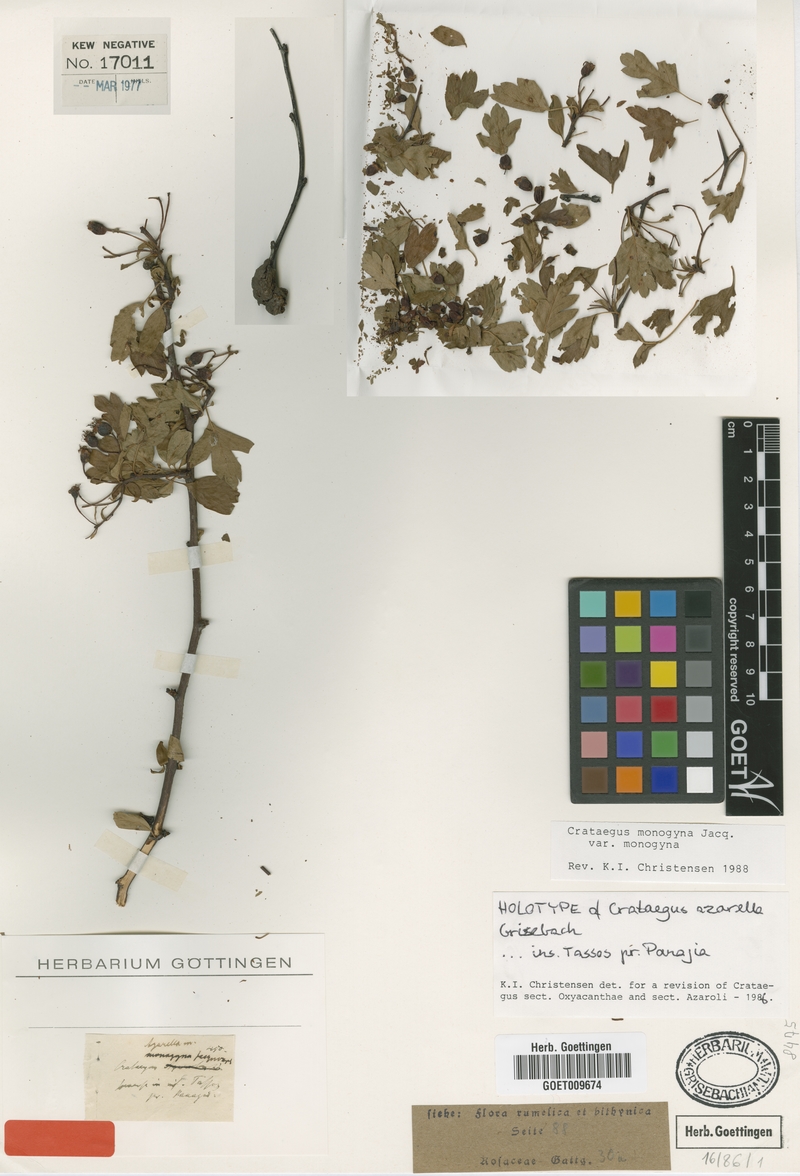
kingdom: Plantae
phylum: Tracheophyta
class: Magnoliopsida
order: Rosales
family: Rosaceae
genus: Crataegus
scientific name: Crataegus monogyna
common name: Hawthorn
